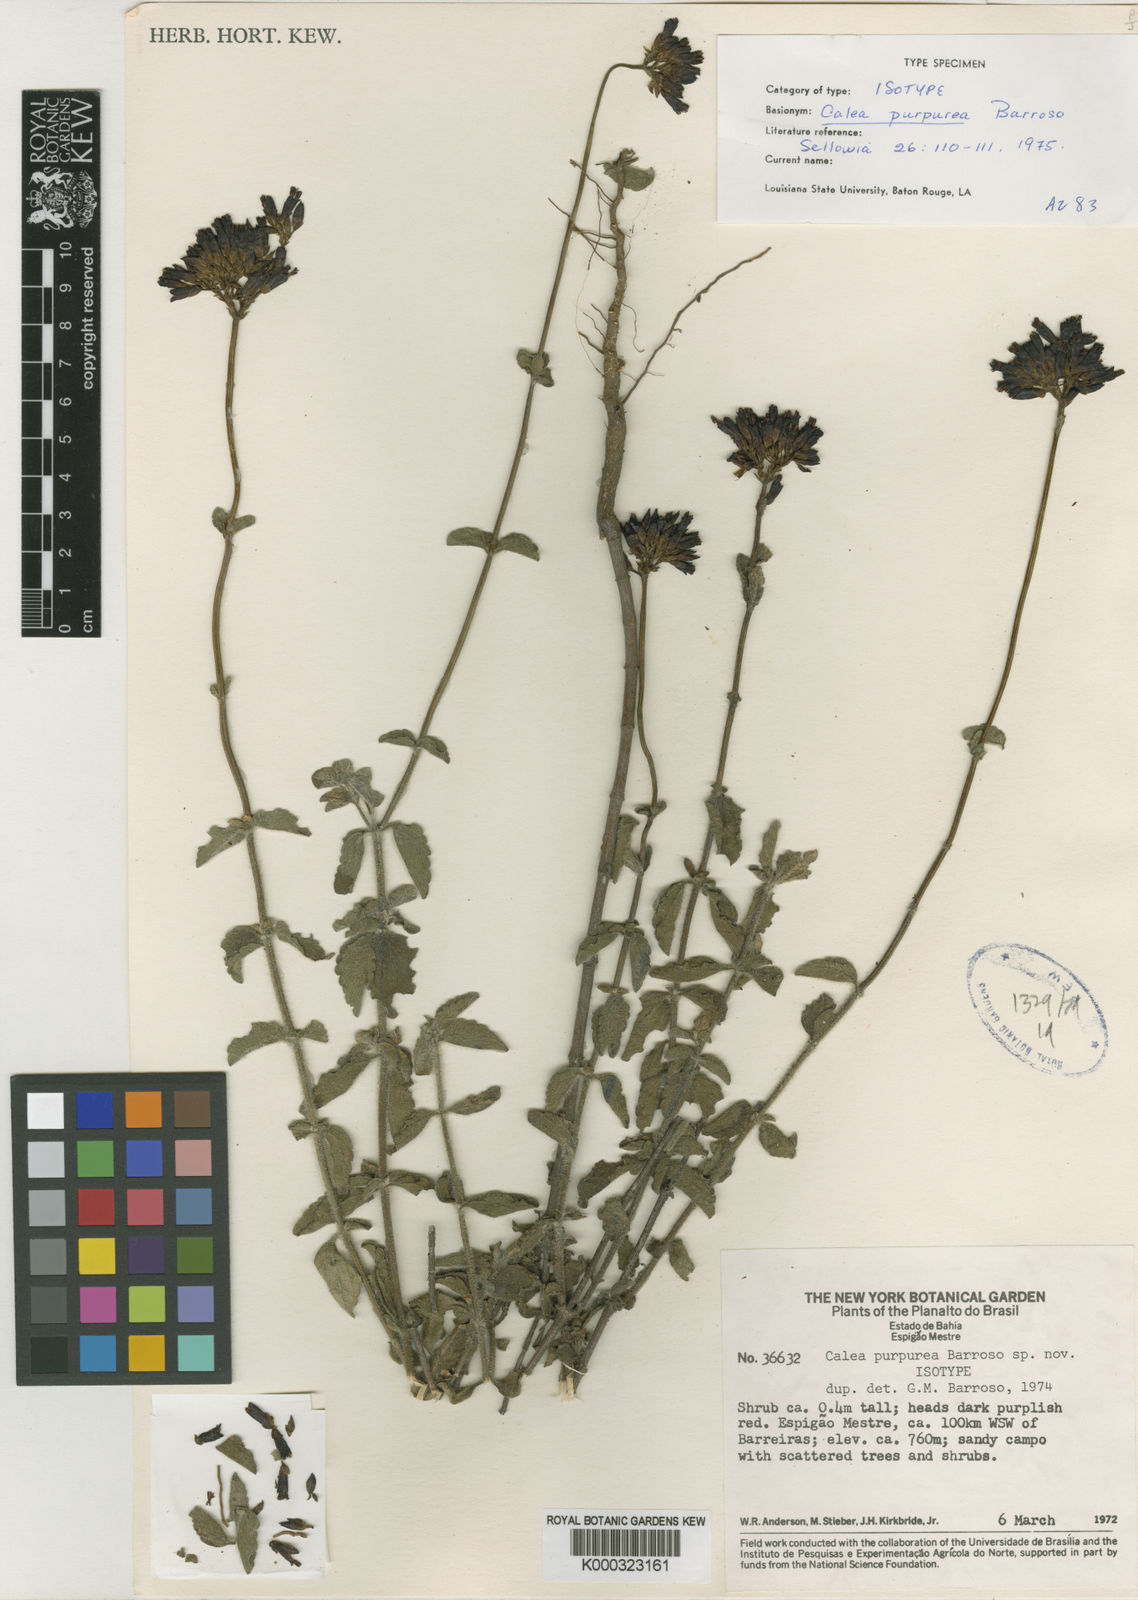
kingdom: Plantae
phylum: Tracheophyta
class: Magnoliopsida
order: Asterales
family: Asteraceae
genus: Calea
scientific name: Calea purpurea
